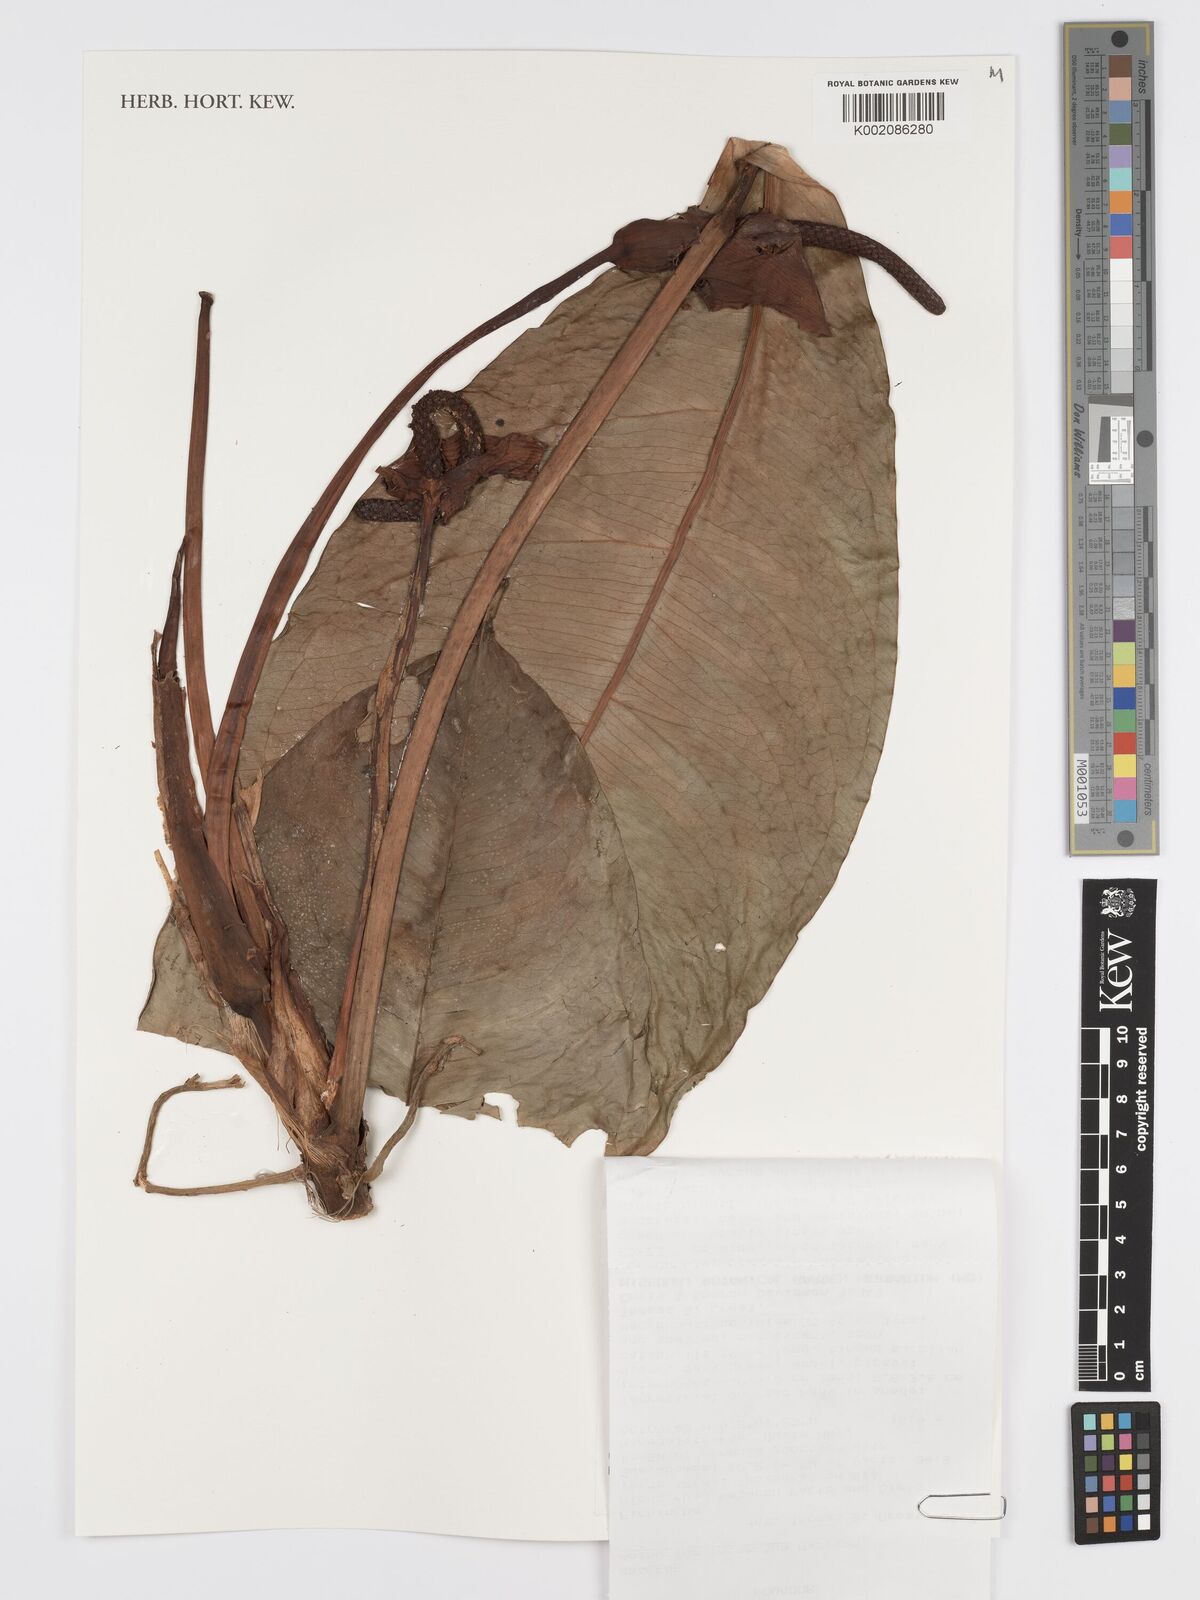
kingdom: Plantae
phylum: Tracheophyta
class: Liliopsida
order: Alismatales
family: Araceae
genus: Anthurium
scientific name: Anthurium incomptum
